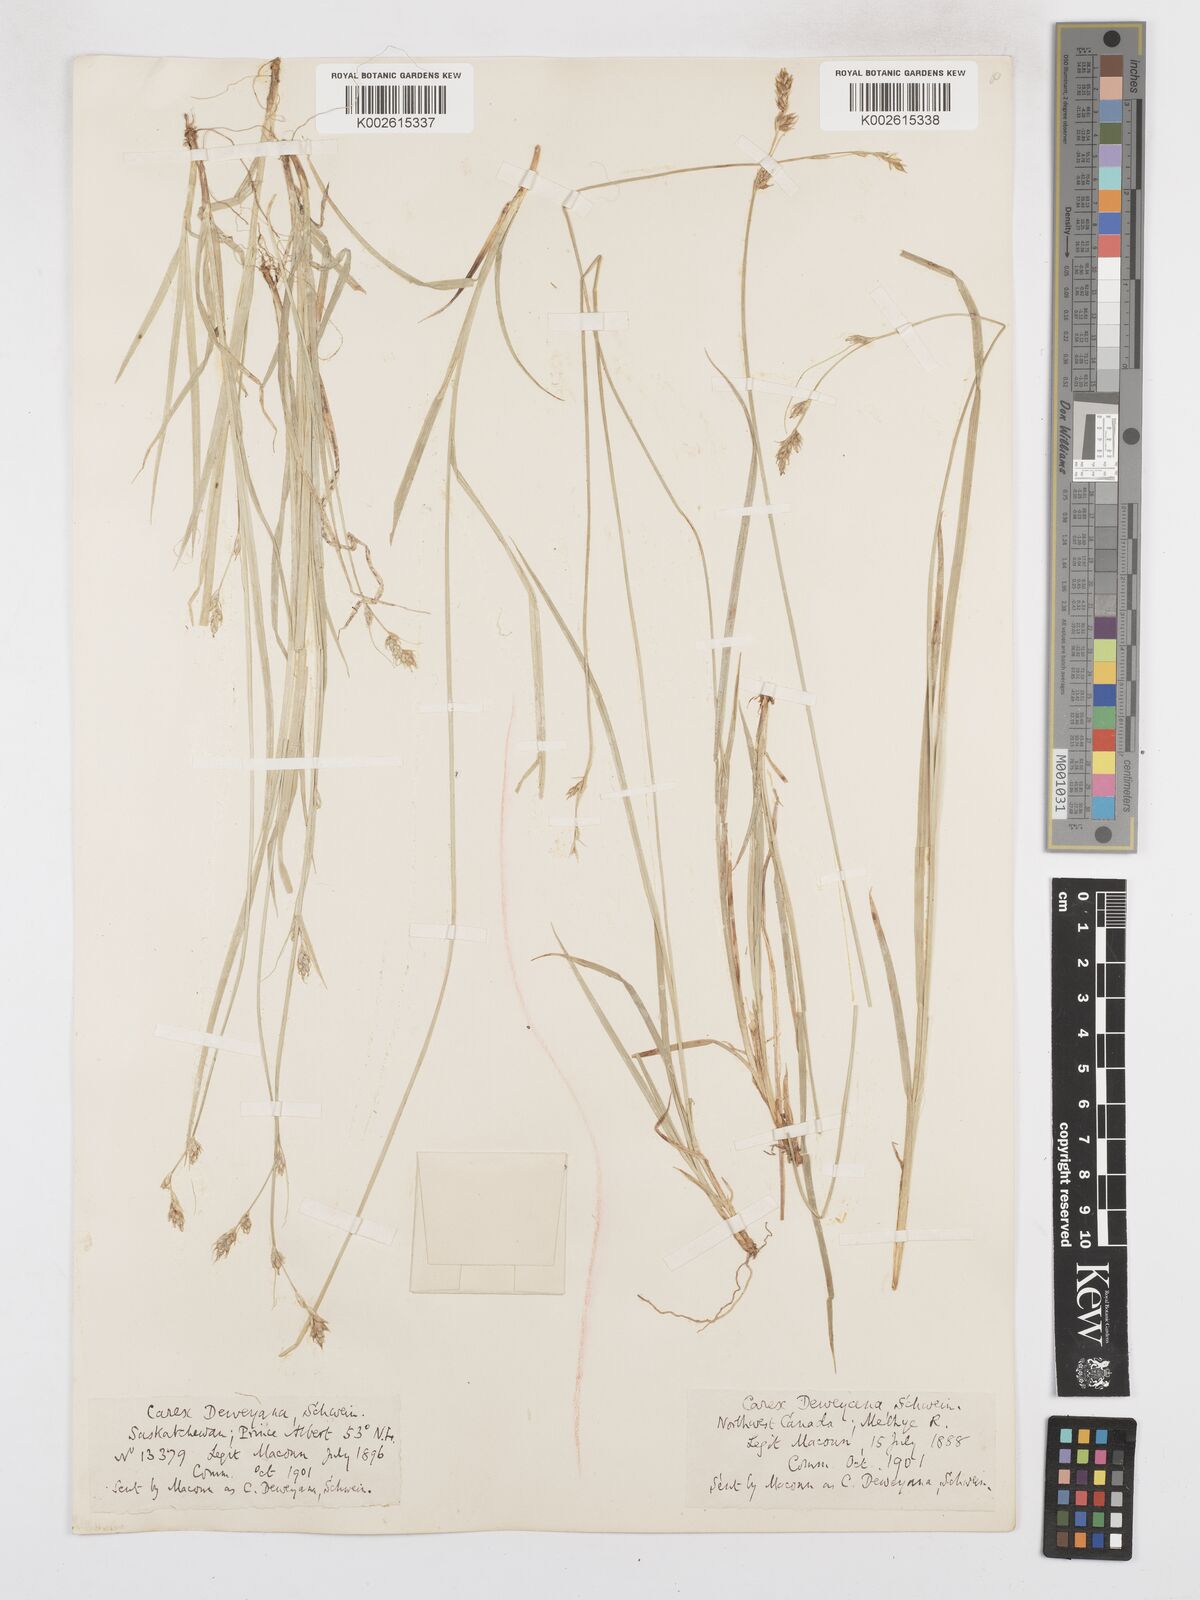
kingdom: Plantae
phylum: Tracheophyta
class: Liliopsida
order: Poales
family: Cyperaceae
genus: Carex
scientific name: Carex deweyana
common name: Dewey's sedge
